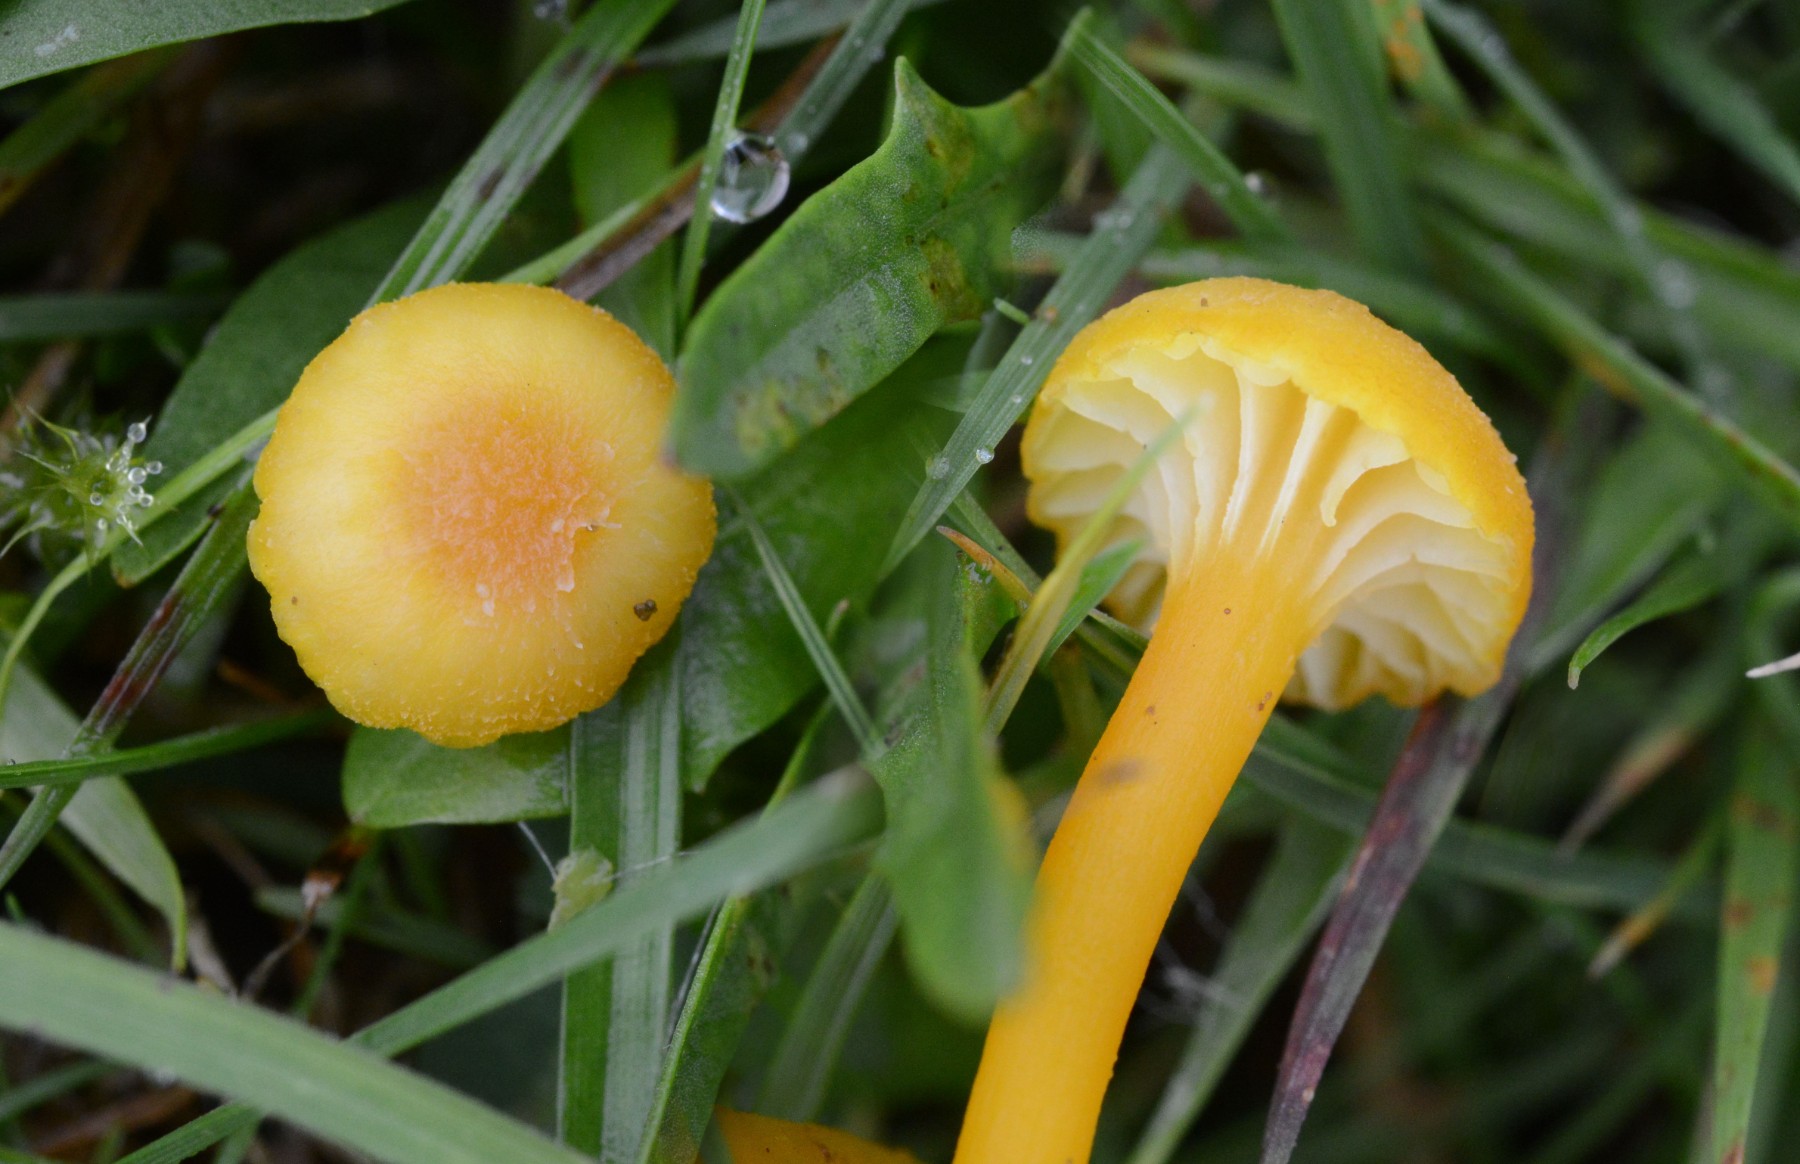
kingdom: Fungi
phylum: Basidiomycota
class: Agaricomycetes
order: Agaricales
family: Hygrophoraceae
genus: Hygrocybe
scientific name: Hygrocybe cantharellus
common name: kantarel-vokshat
